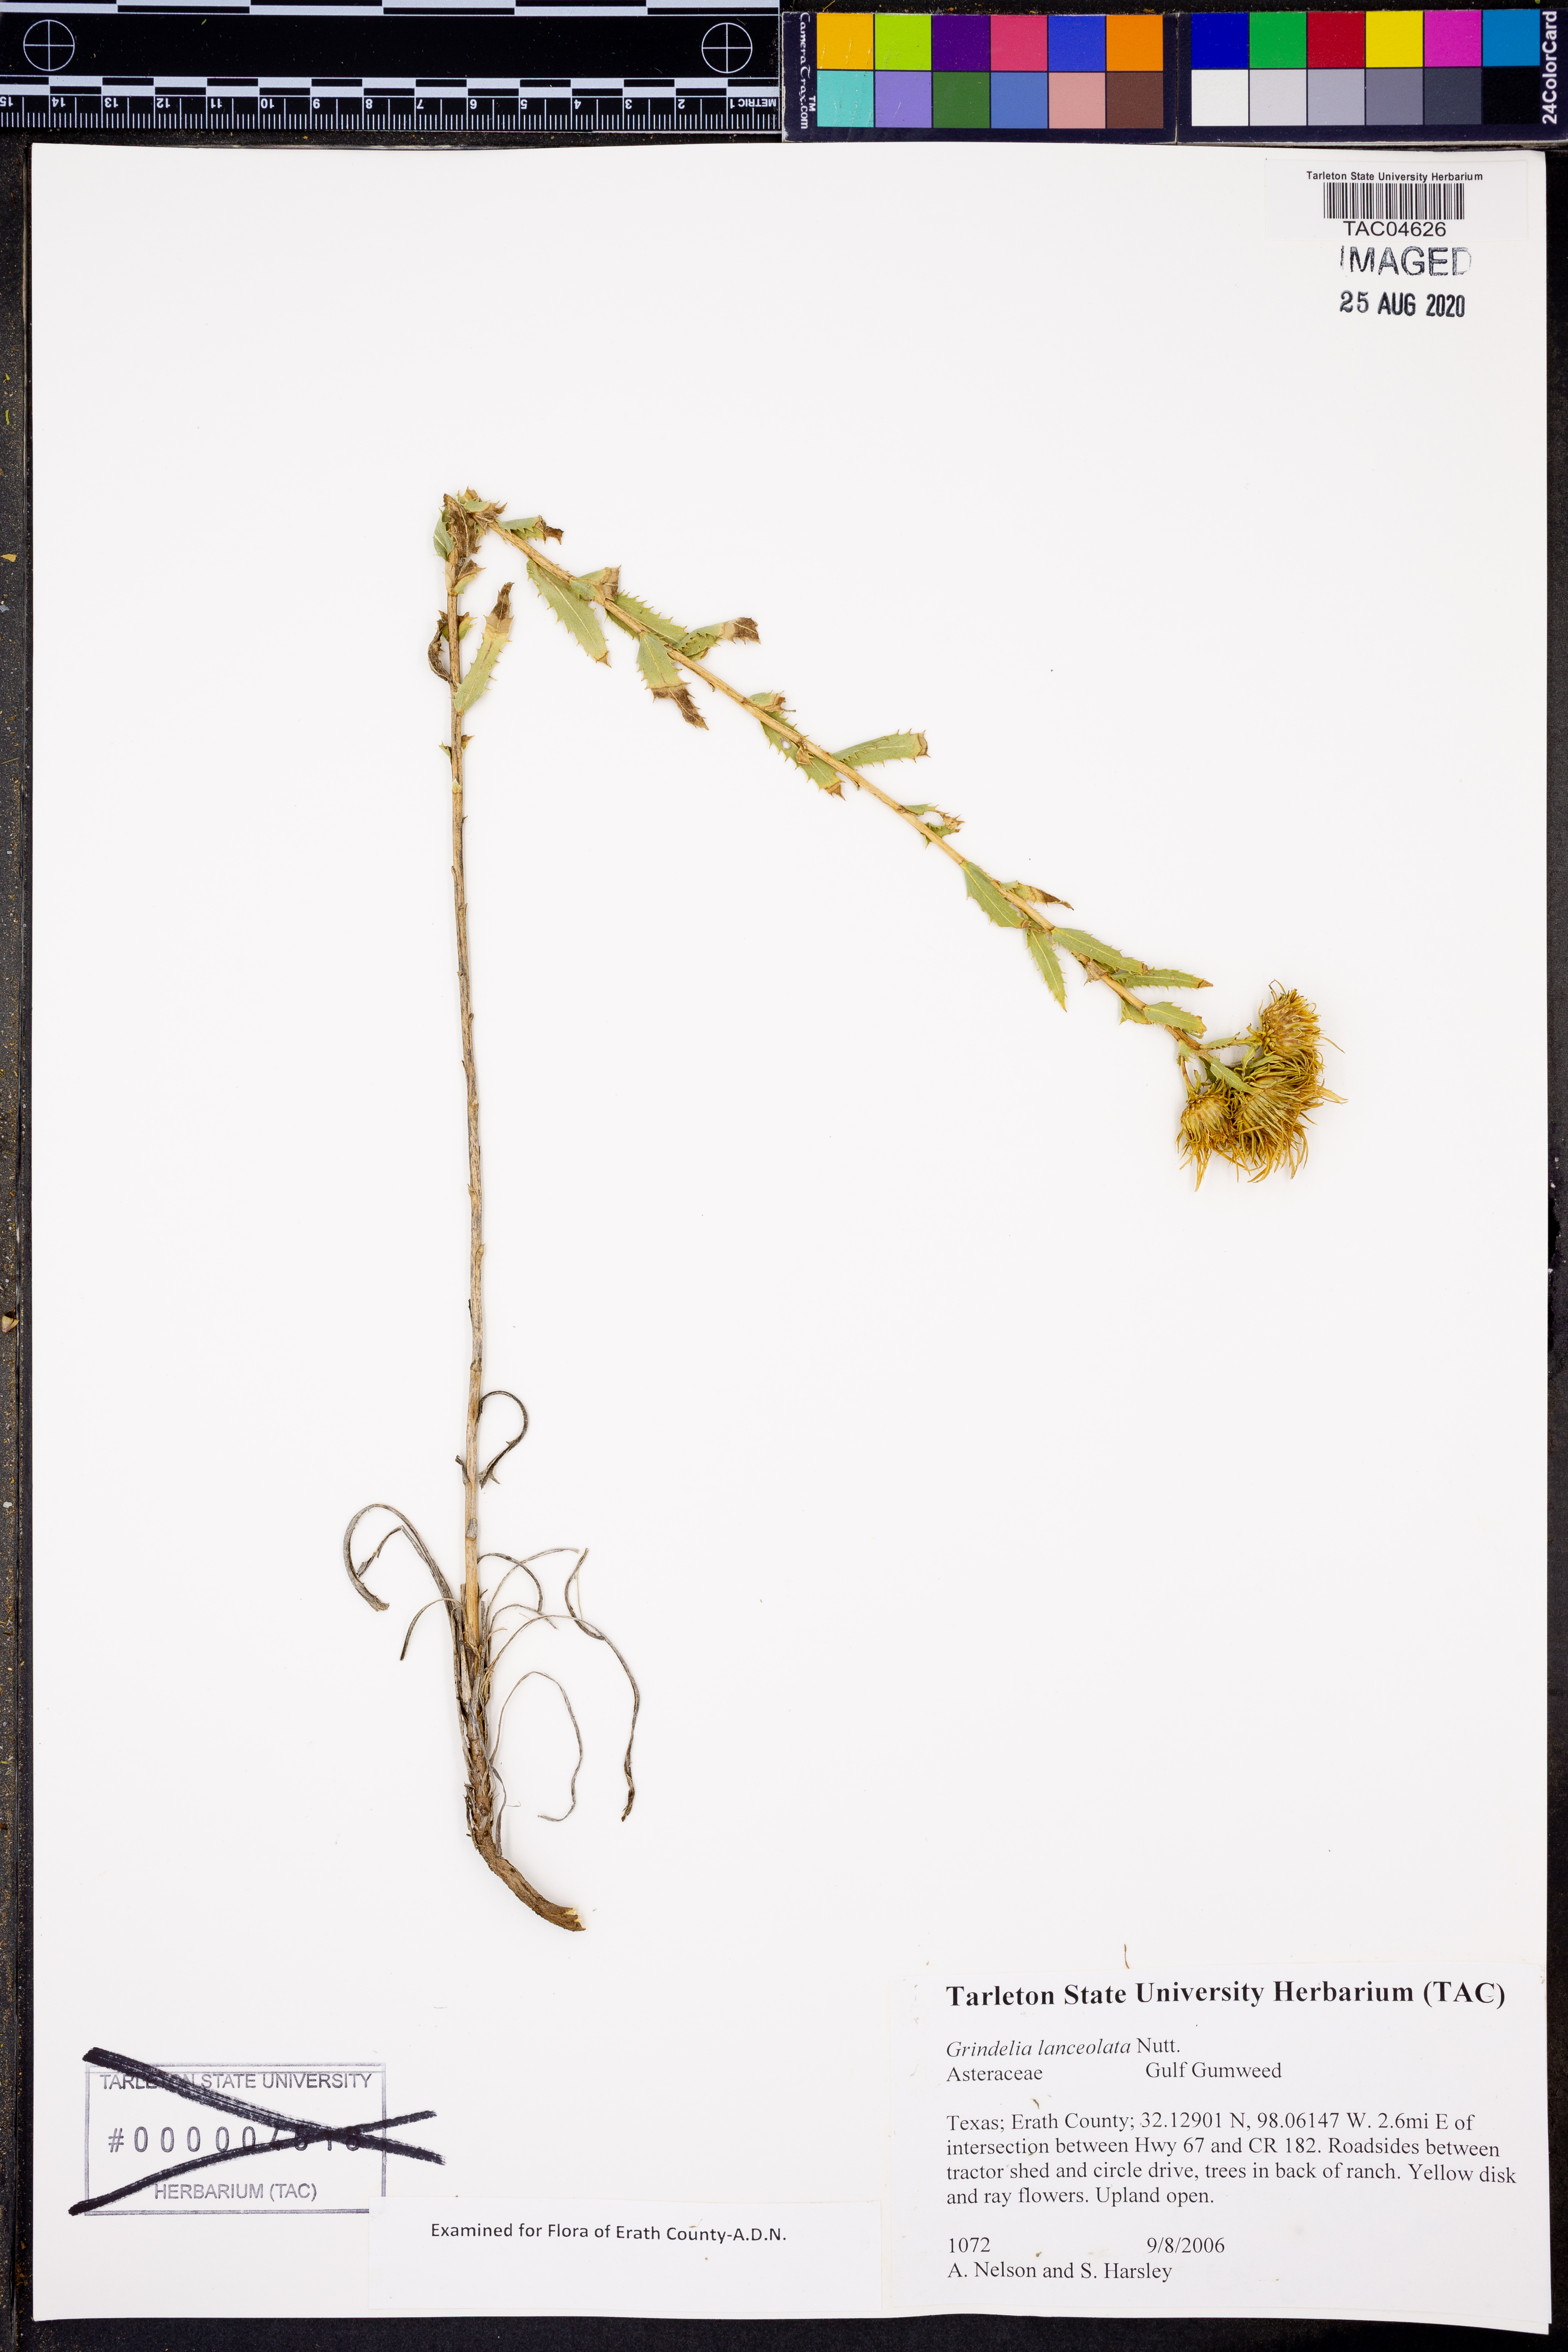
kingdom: Plantae
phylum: Tracheophyta
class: Magnoliopsida
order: Asterales
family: Asteraceae
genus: Grindelia
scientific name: Grindelia lanceolata
